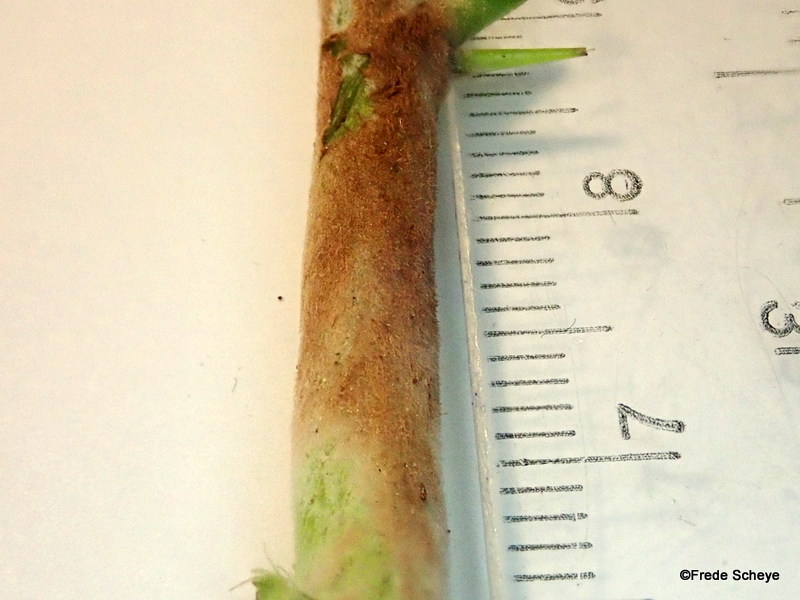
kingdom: Fungi
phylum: Ascomycota
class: Leotiomycetes
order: Helotiales
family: Erysiphaceae
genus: Podosphaera
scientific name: Podosphaera mors-uvae
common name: American gooseberry mildew
